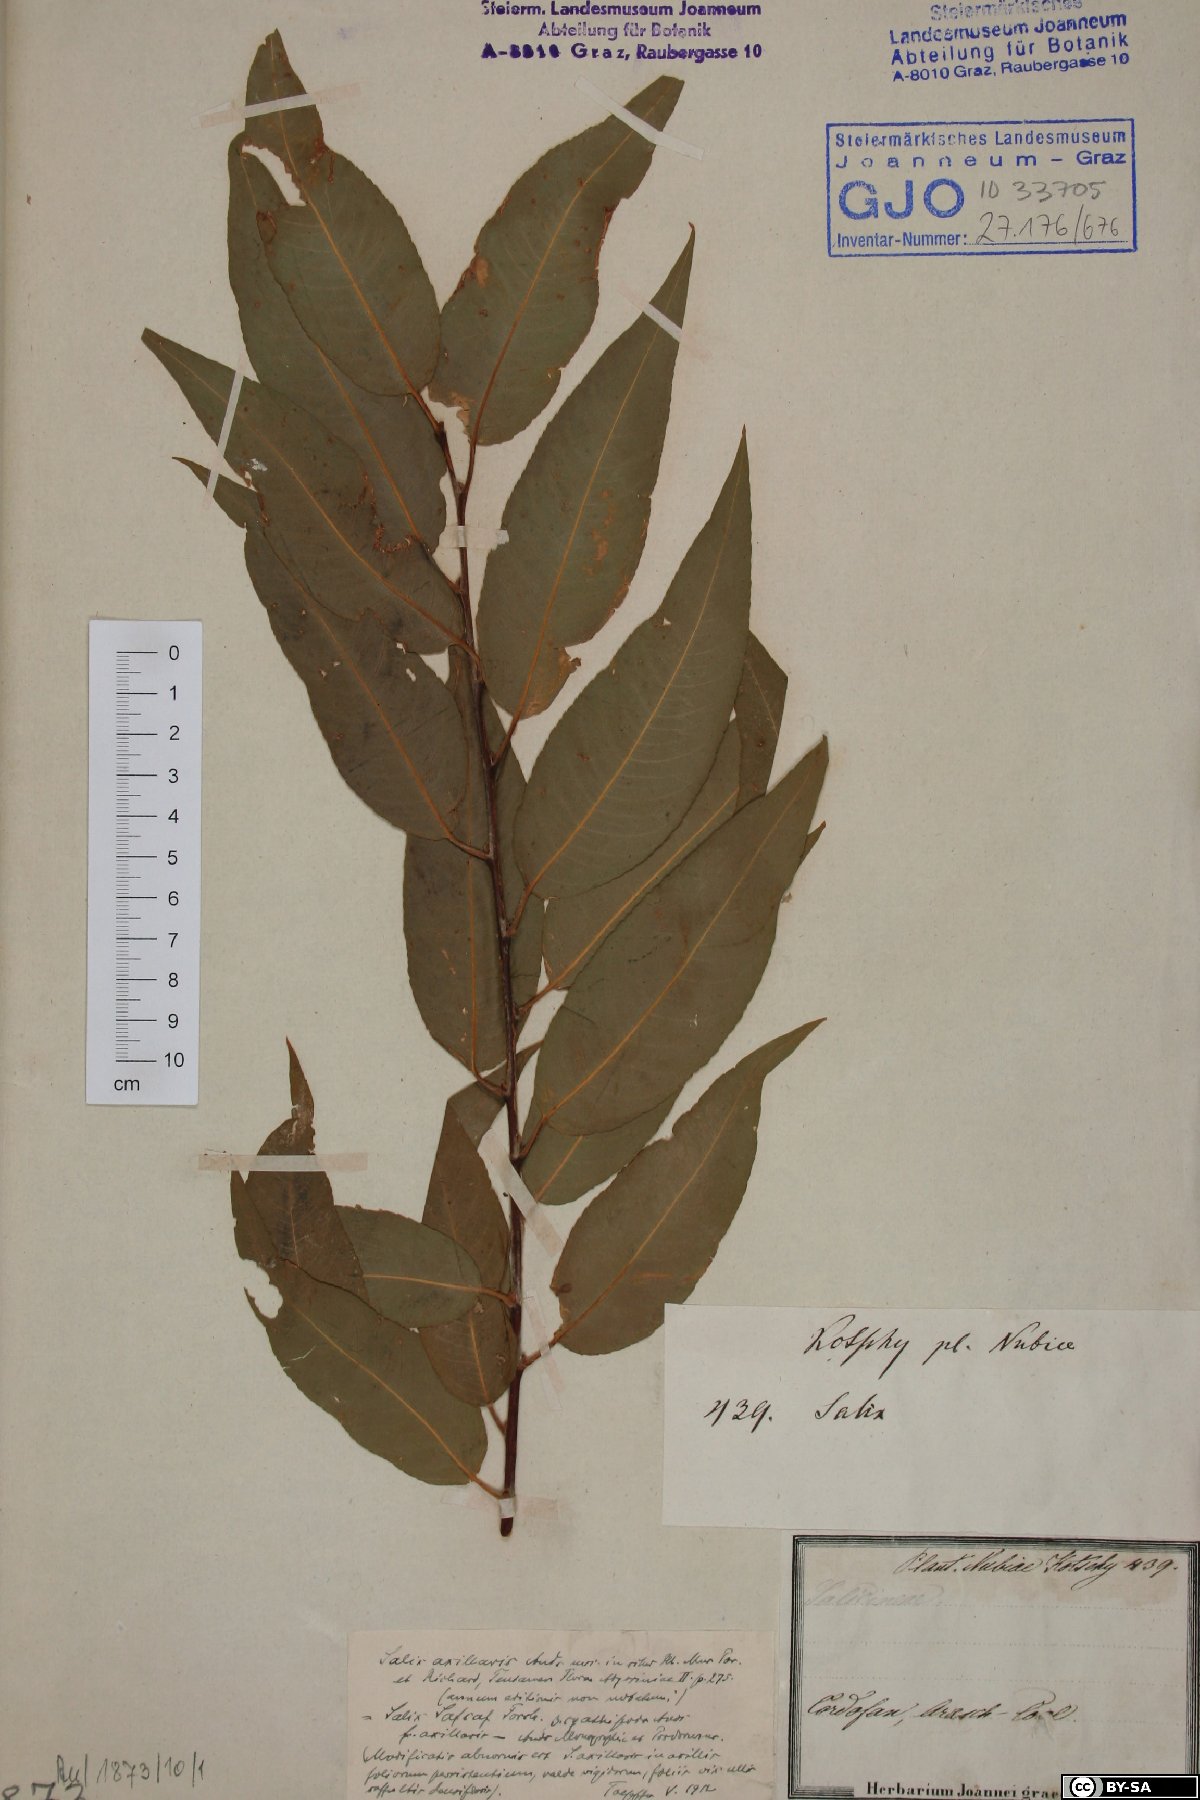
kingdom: Plantae
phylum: Tracheophyta
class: Magnoliopsida
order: Malpighiales
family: Salicaceae
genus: Salix
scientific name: Salix mucronata
